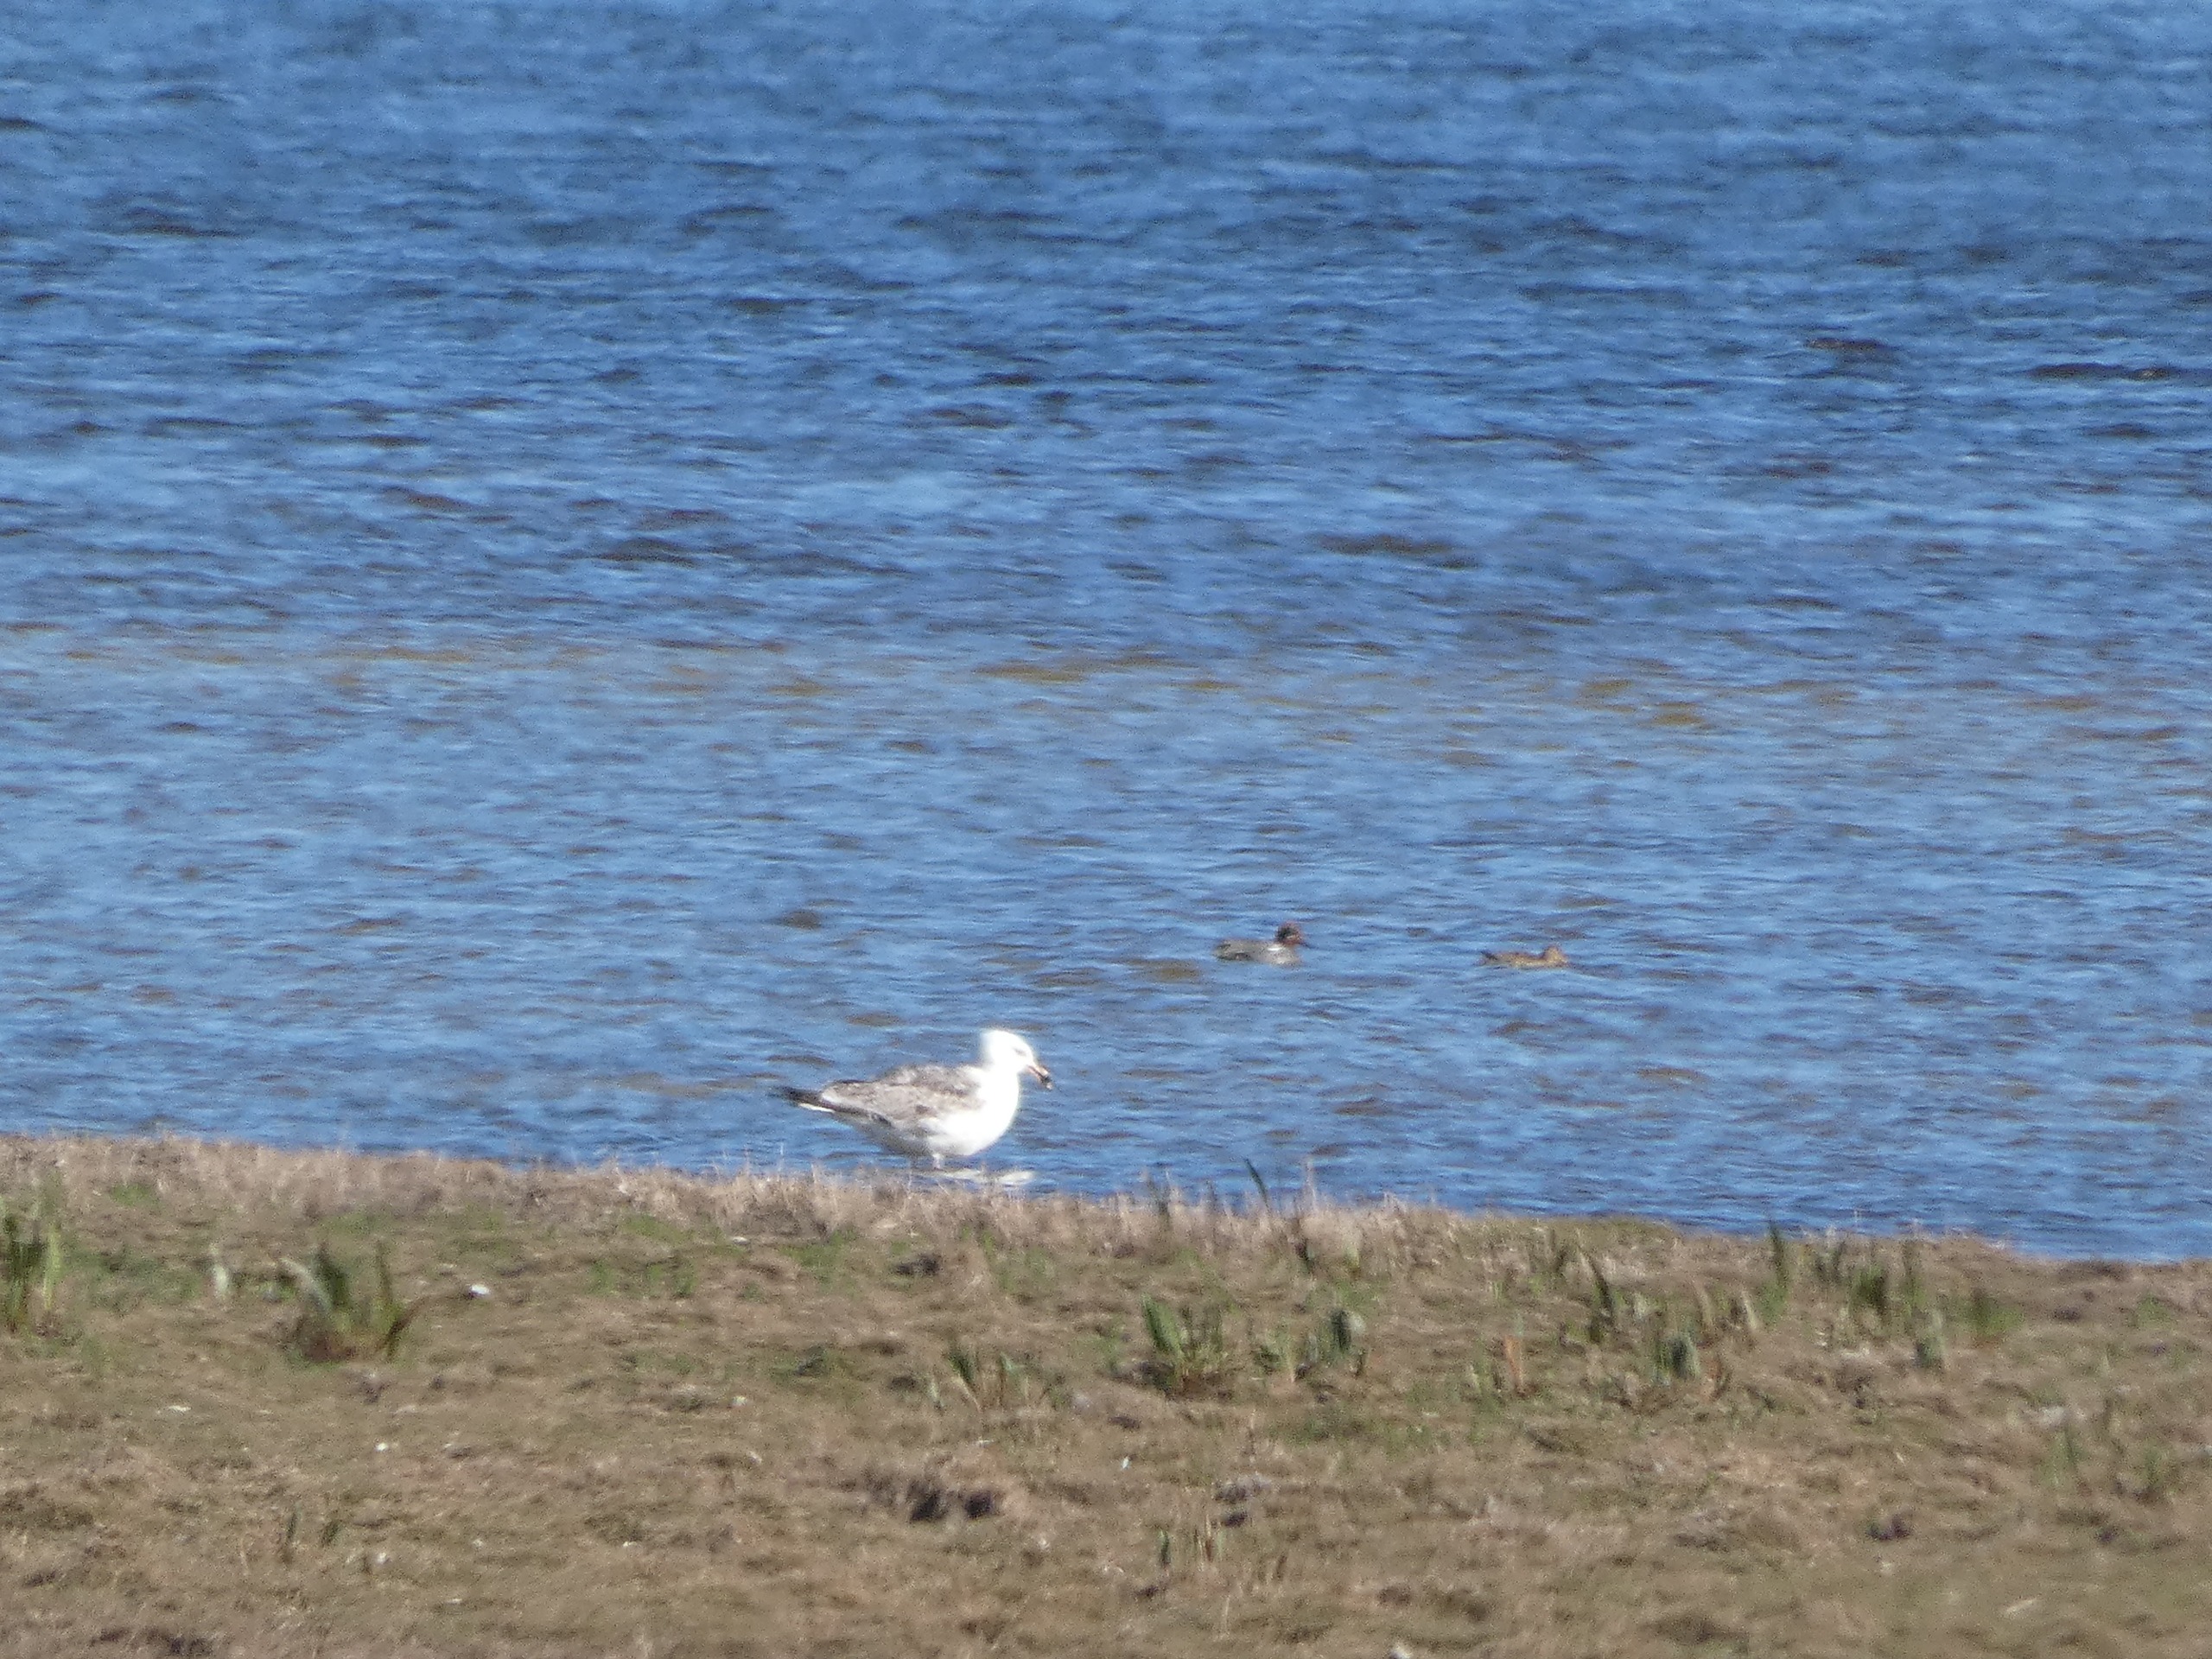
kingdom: Animalia
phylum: Chordata
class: Aves
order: Charadriiformes
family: Laridae
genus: Larus
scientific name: Larus argentatus
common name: Sølvmåge
